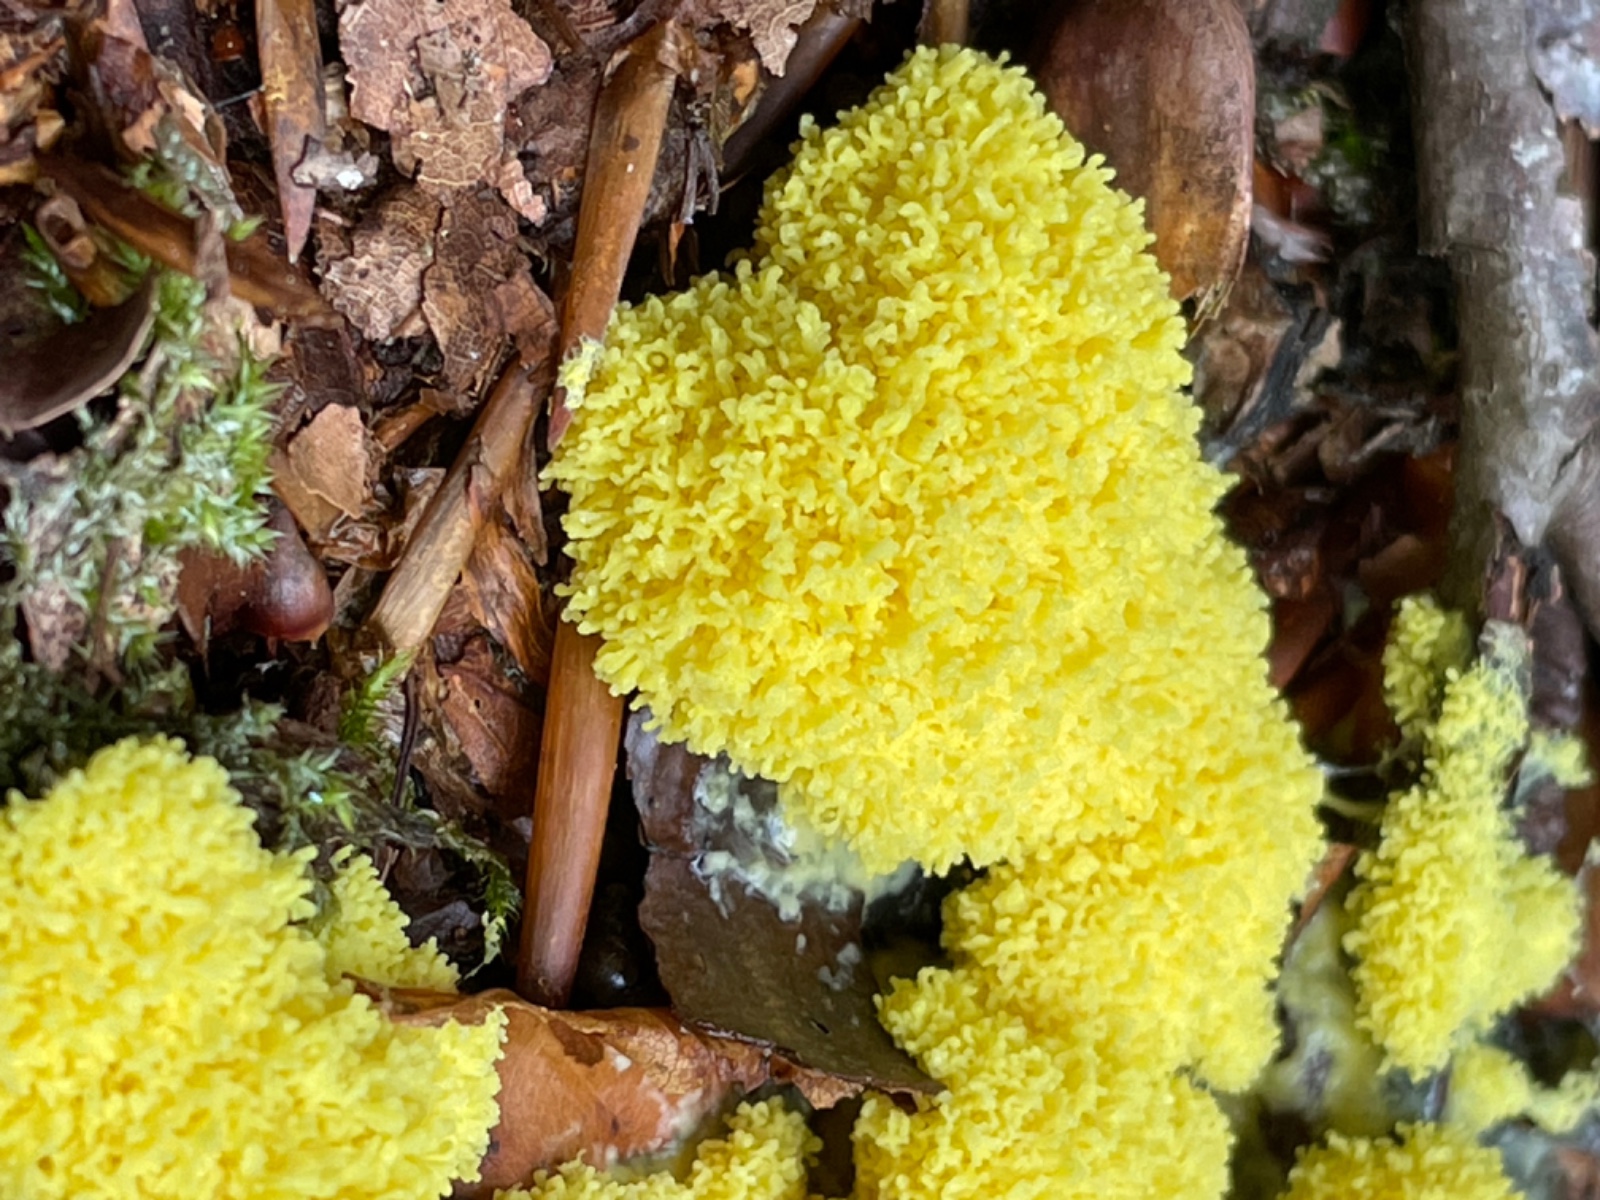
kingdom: Protozoa
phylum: Mycetozoa
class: Myxomycetes
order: Physarales
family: Physaraceae
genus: Fuligo
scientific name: Fuligo septica
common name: gul troldsmør
